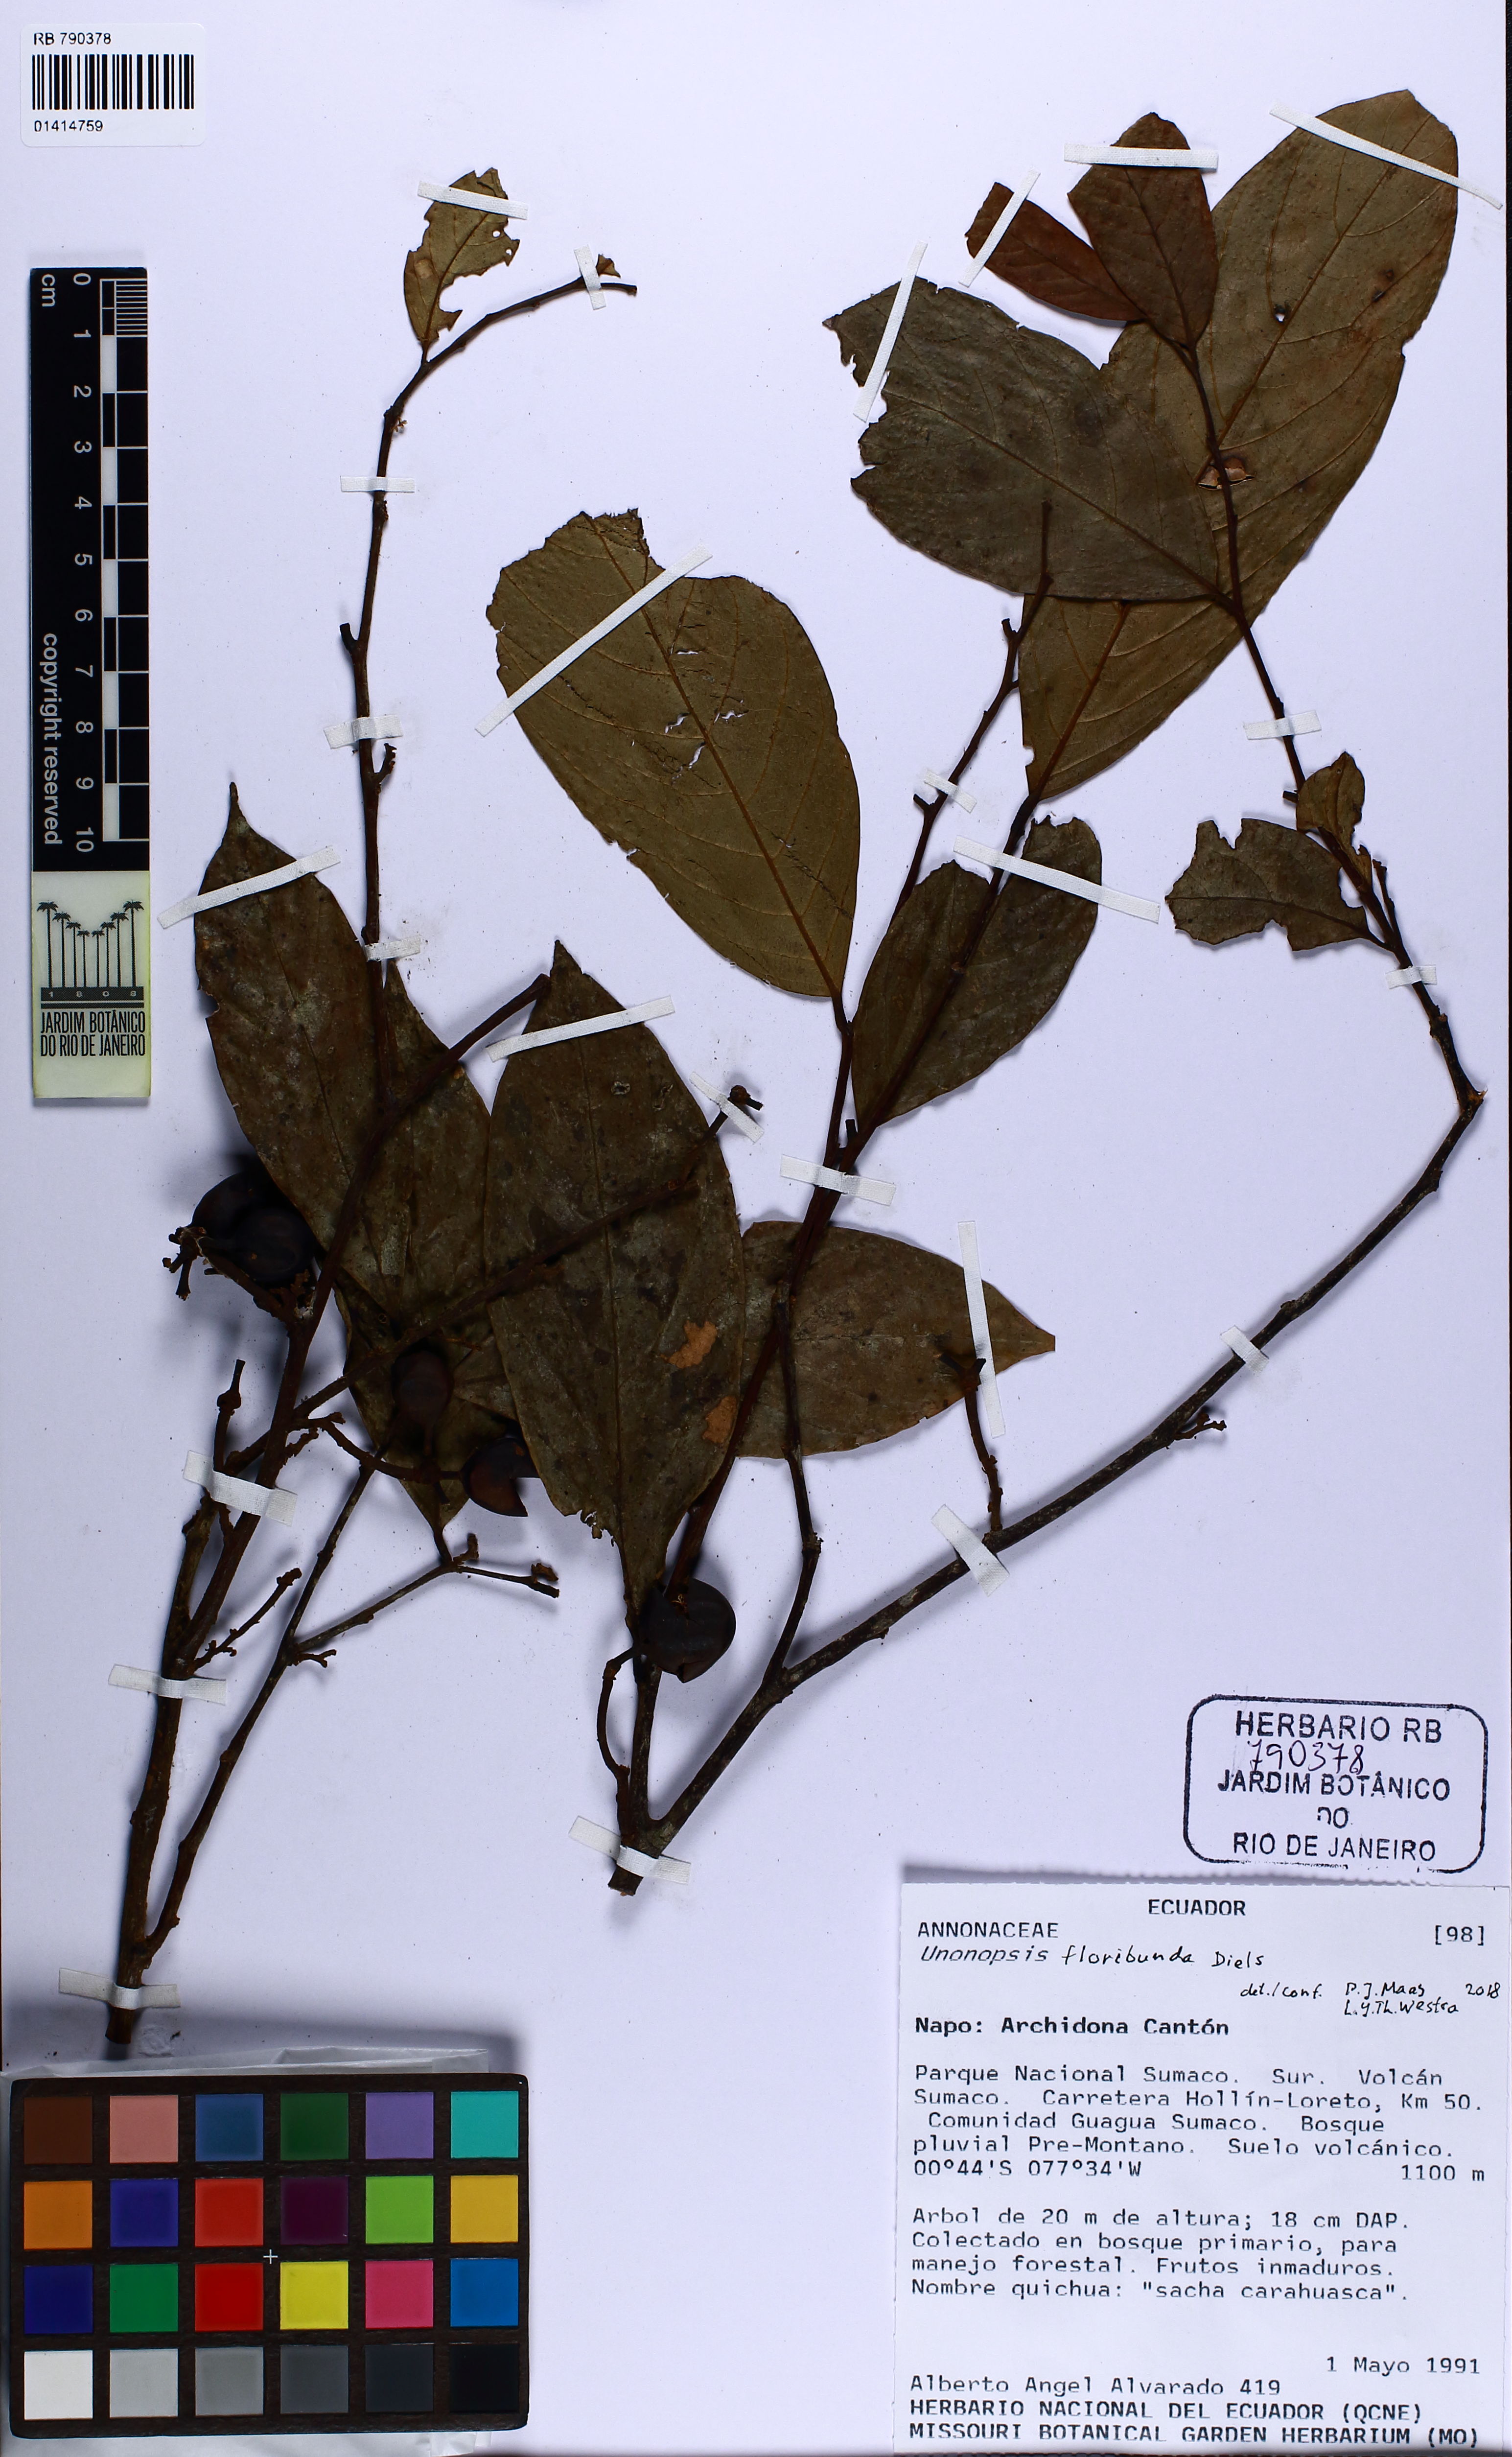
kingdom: Plantae
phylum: Tracheophyta
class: Magnoliopsida
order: Magnoliales
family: Annonaceae
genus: Unonopsis
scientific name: Unonopsis floribunda
